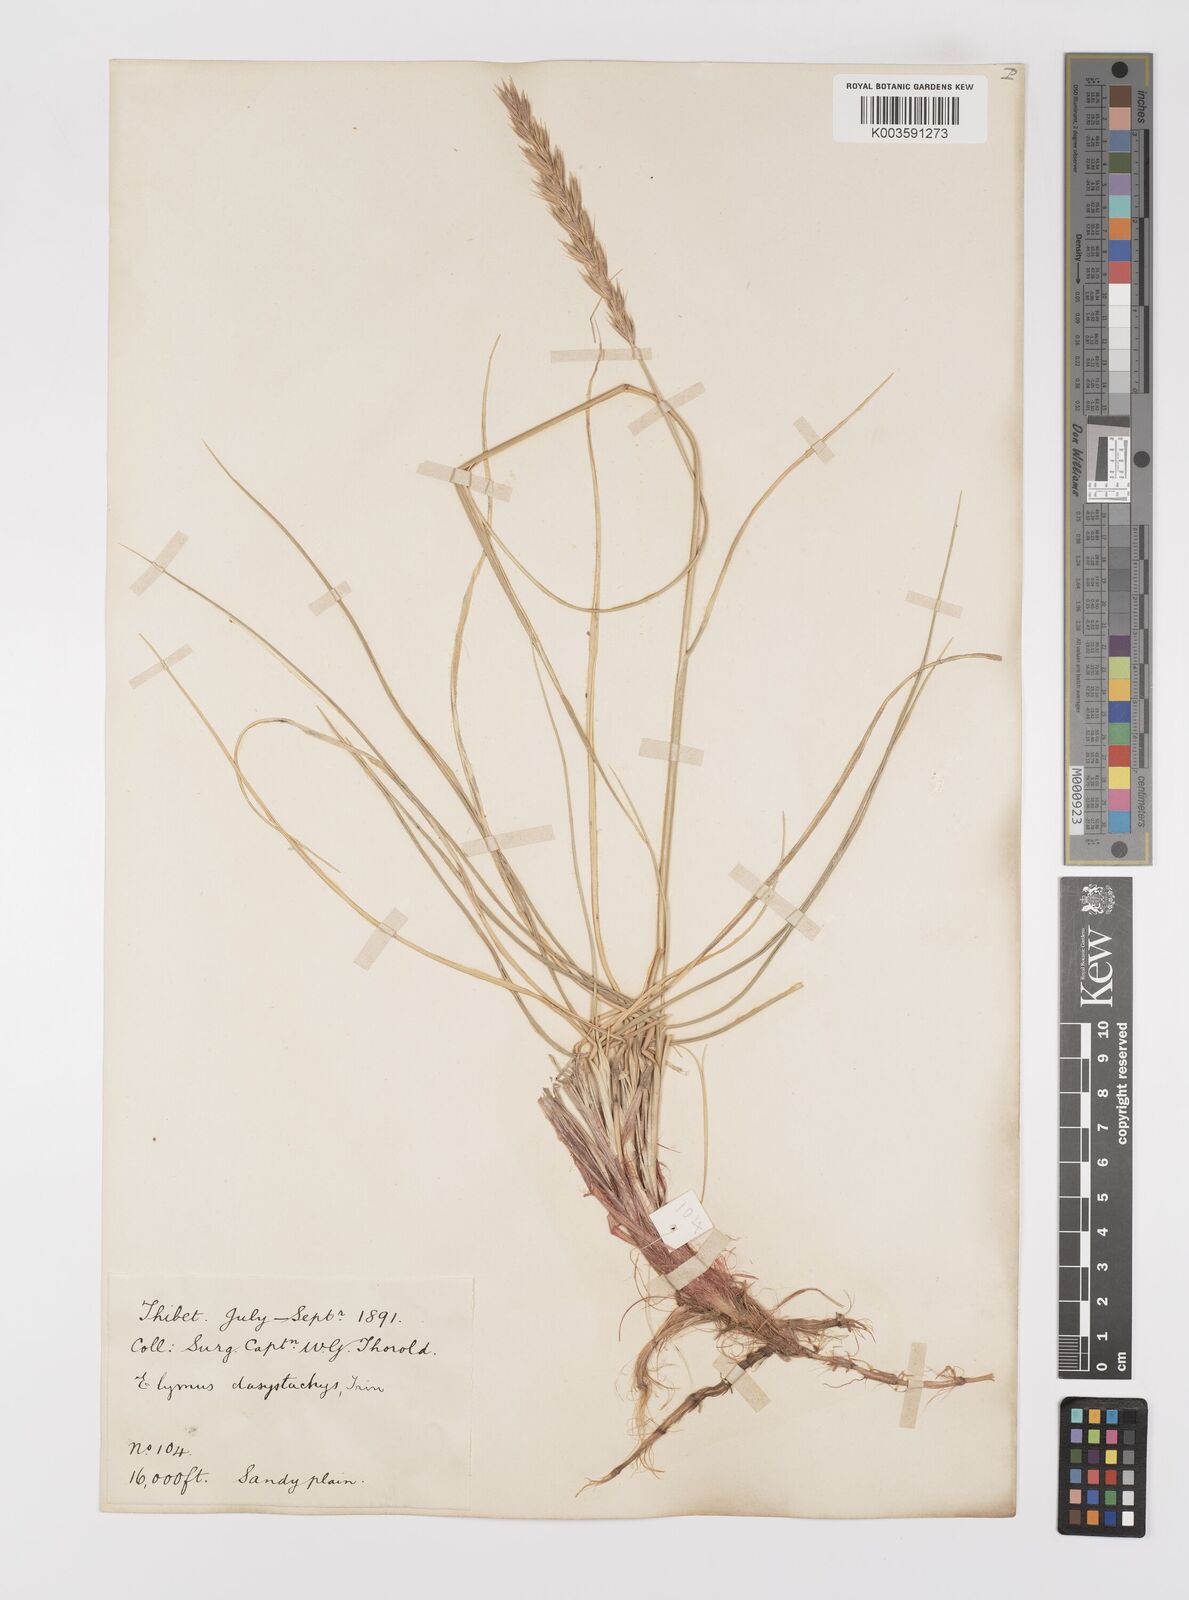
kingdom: Plantae
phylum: Tracheophyta
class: Liliopsida
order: Poales
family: Poaceae
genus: Leymus
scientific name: Leymus secalinus
